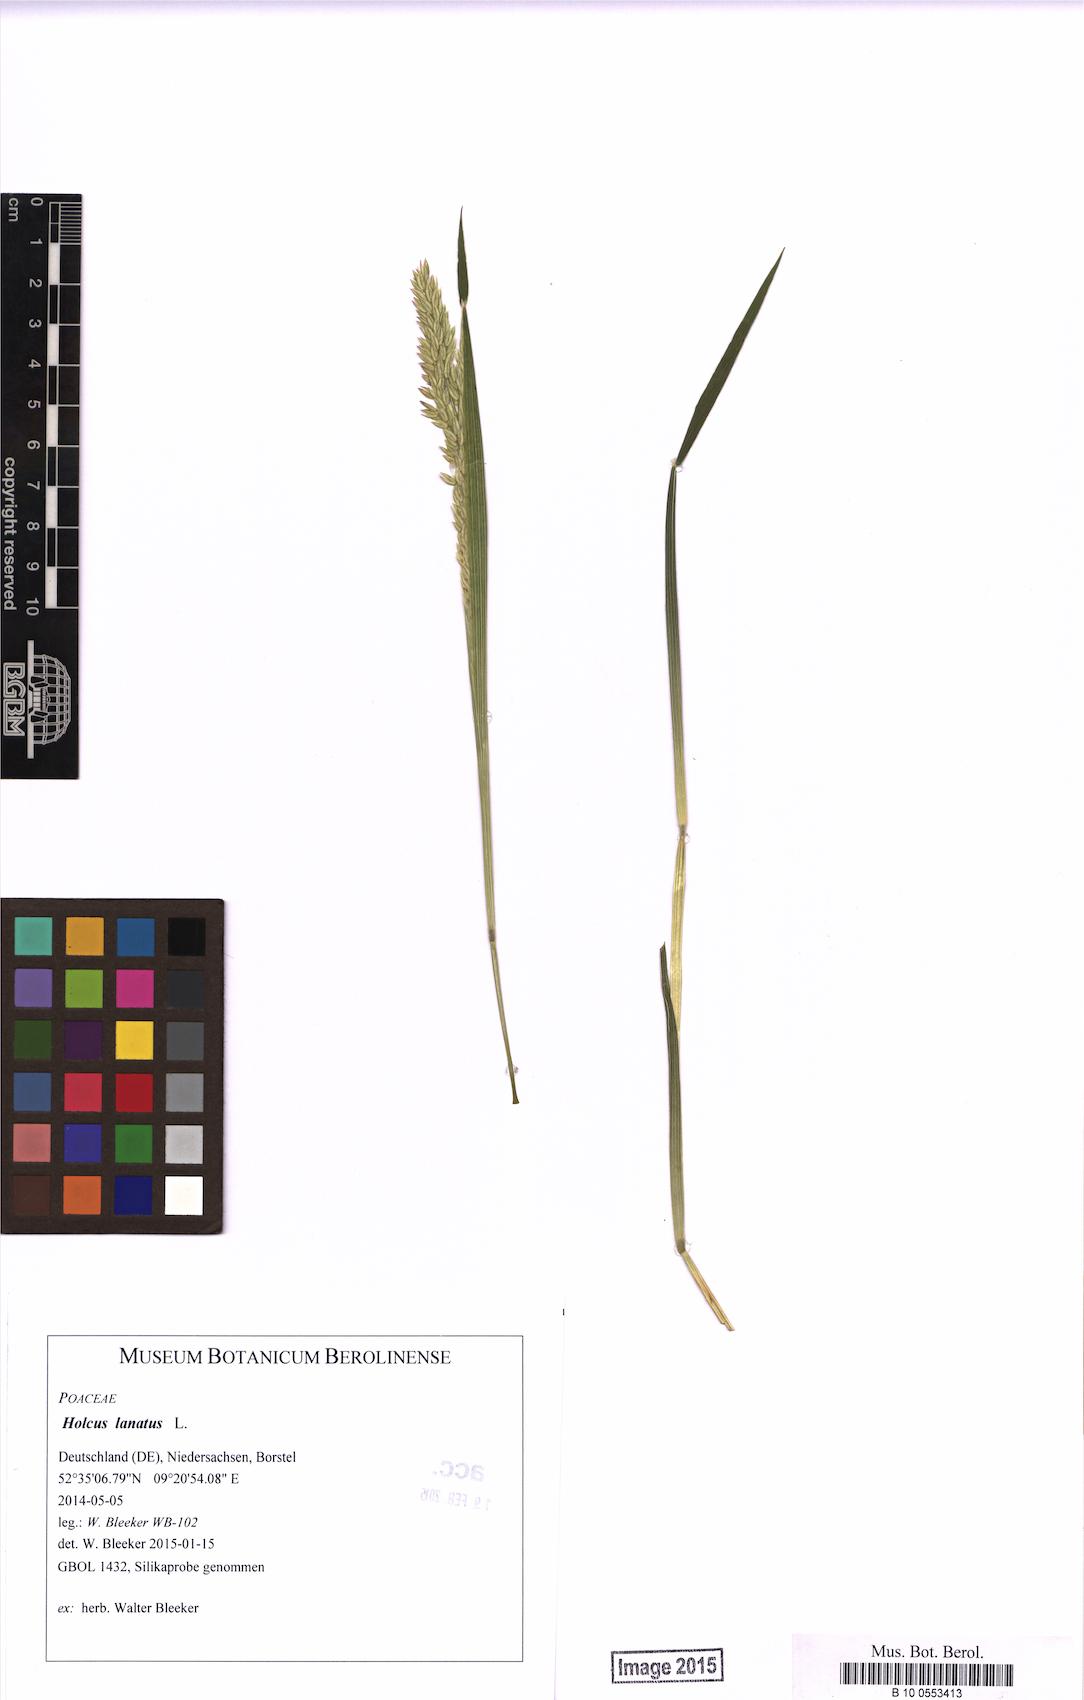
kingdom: Plantae
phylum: Tracheophyta
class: Liliopsida
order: Poales
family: Poaceae
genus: Holcus
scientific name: Holcus lanatus
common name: Yorkshire-fog
